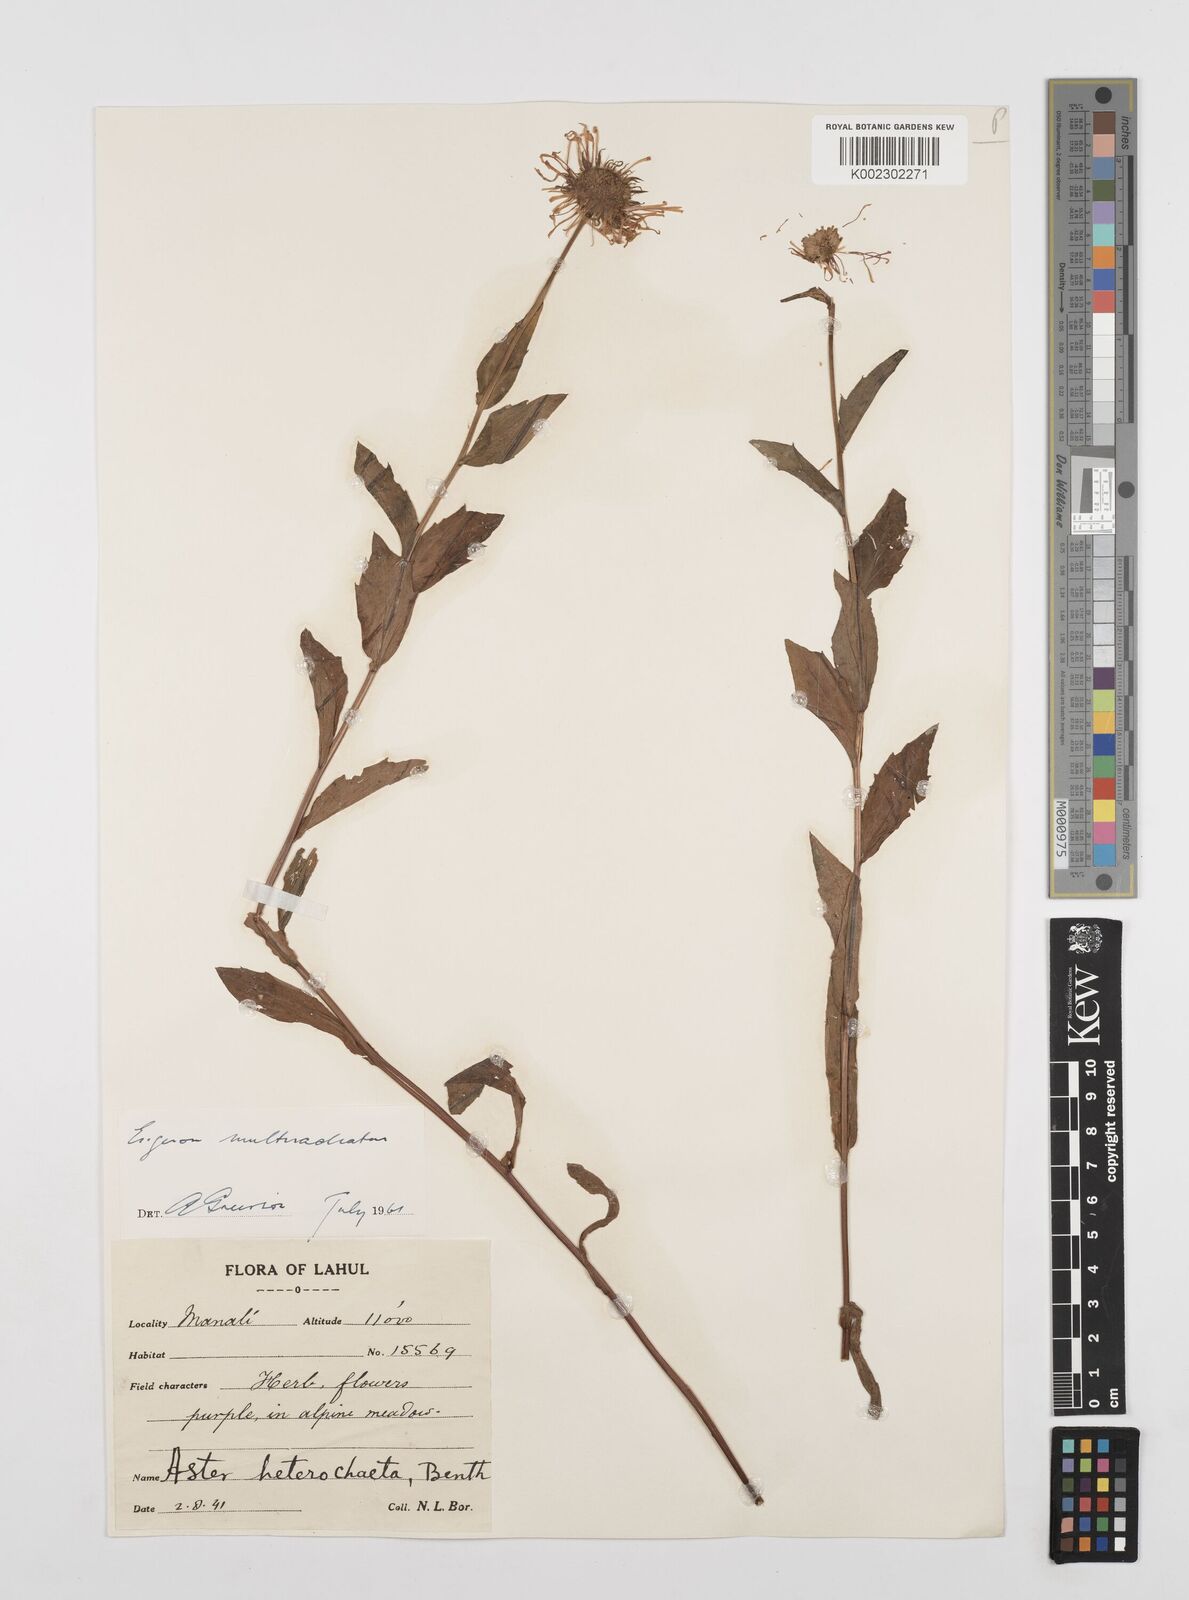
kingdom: Plantae
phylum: Tracheophyta
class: Magnoliopsida
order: Asterales
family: Asteraceae
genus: Erigeron
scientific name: Erigeron multiradiatus
